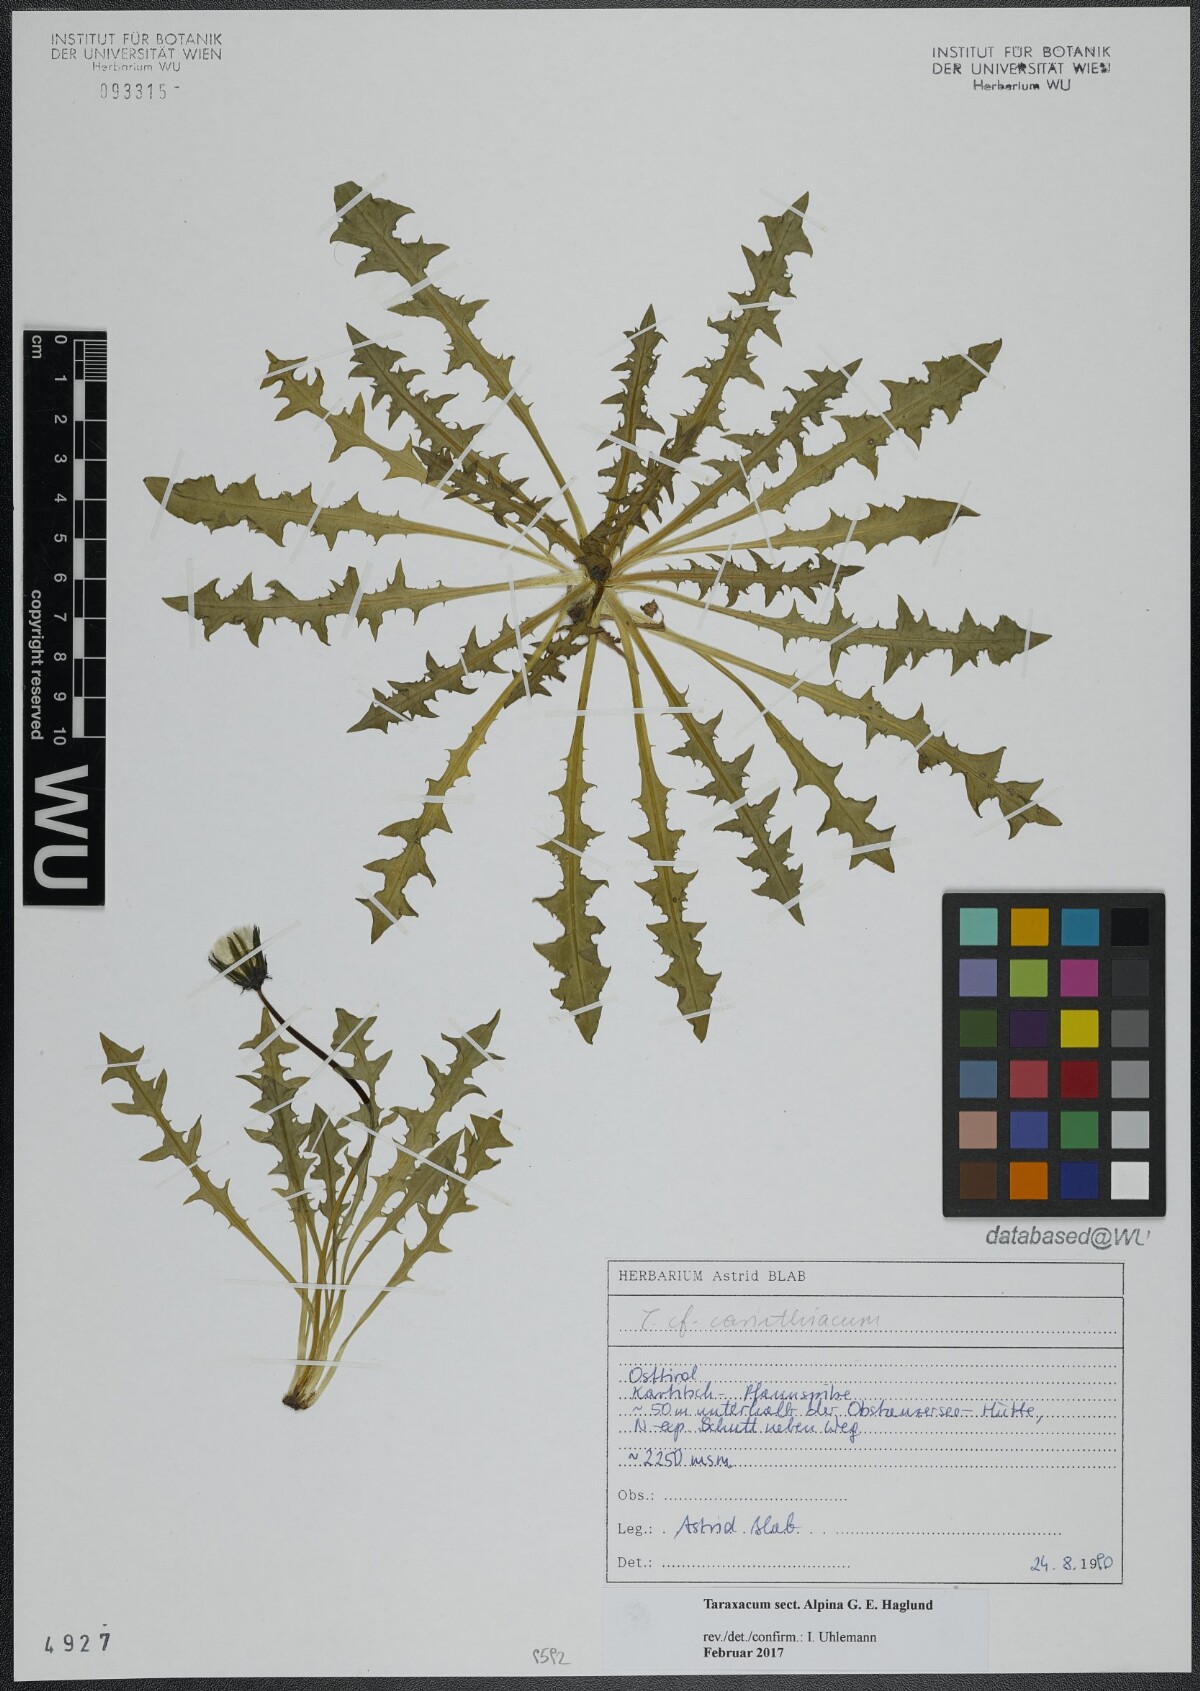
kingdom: Plantae
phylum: Tracheophyta
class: Magnoliopsida
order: Asterales
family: Asteraceae
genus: Taraxacum
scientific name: Taraxacum
